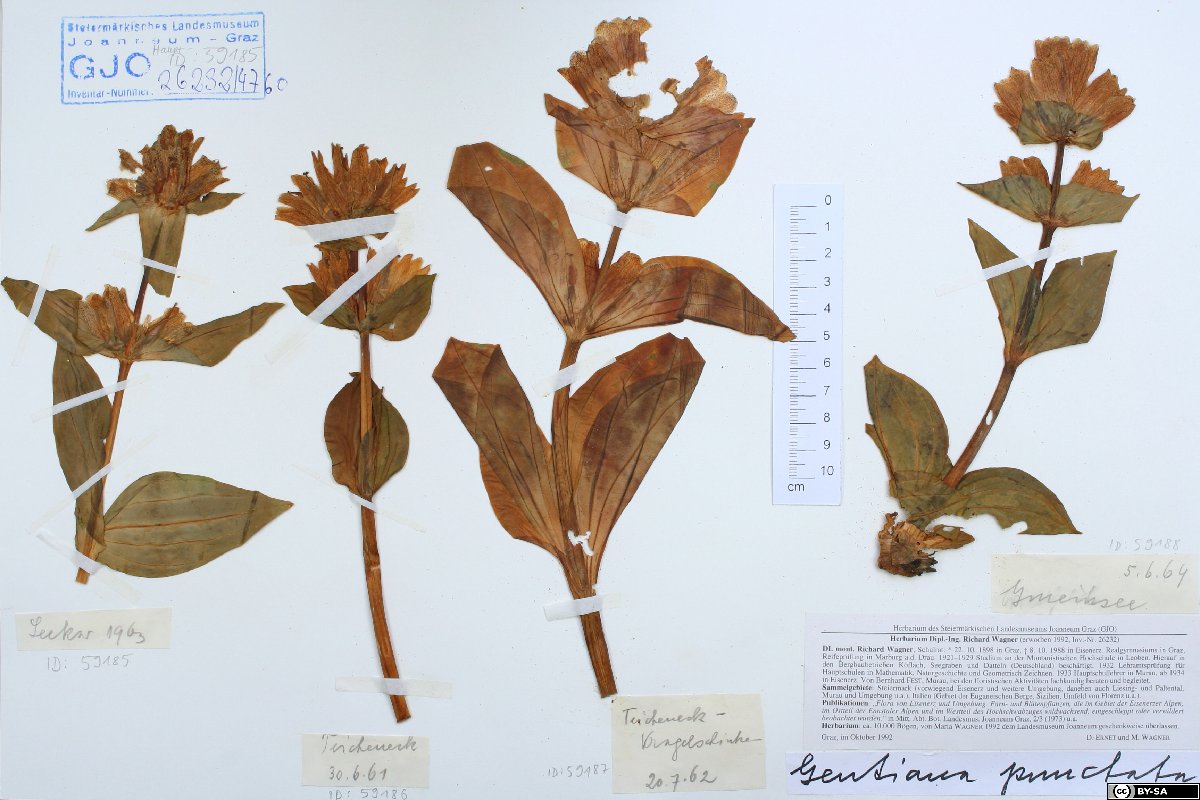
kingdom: Plantae
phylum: Tracheophyta
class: Magnoliopsida
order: Gentianales
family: Gentianaceae
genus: Gentiana
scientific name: Gentiana punctata
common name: Spotted gentian
